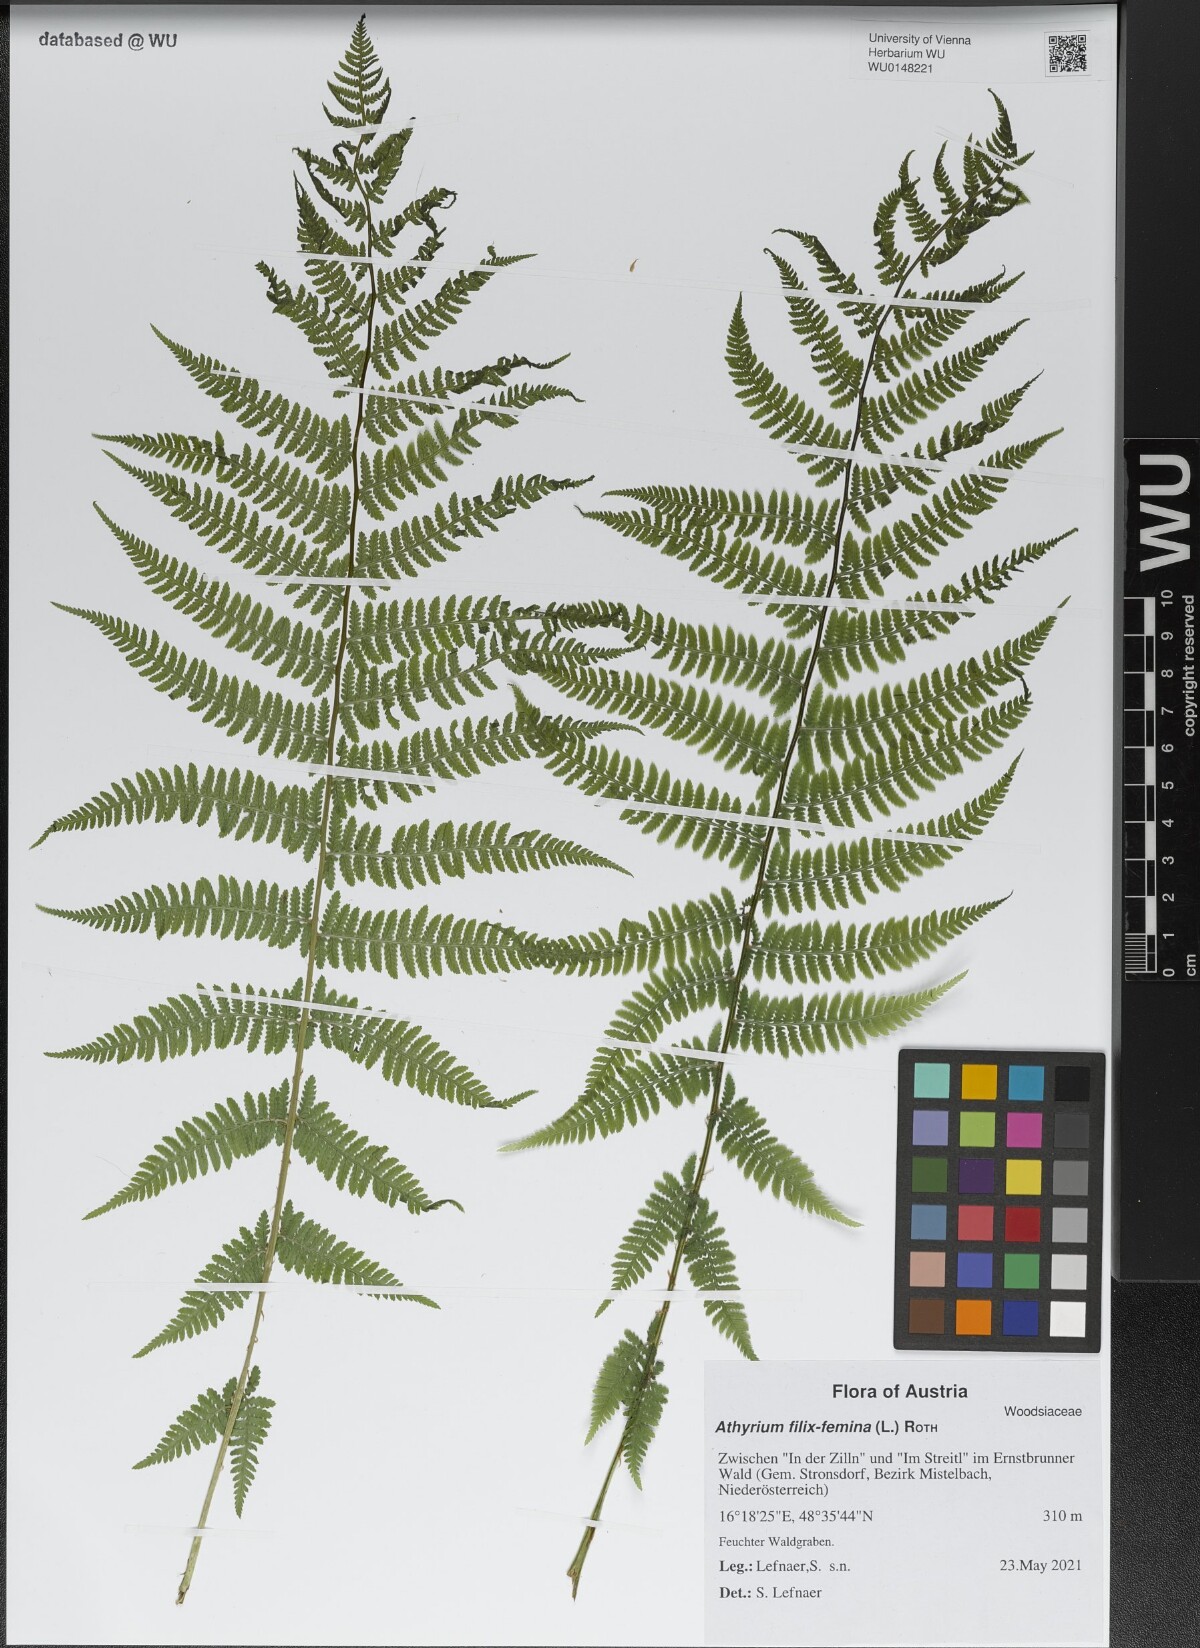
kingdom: Plantae
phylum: Tracheophyta
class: Polypodiopsida
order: Polypodiales
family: Athyriaceae
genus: Athyrium
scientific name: Athyrium filix-femina
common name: Lady fern
